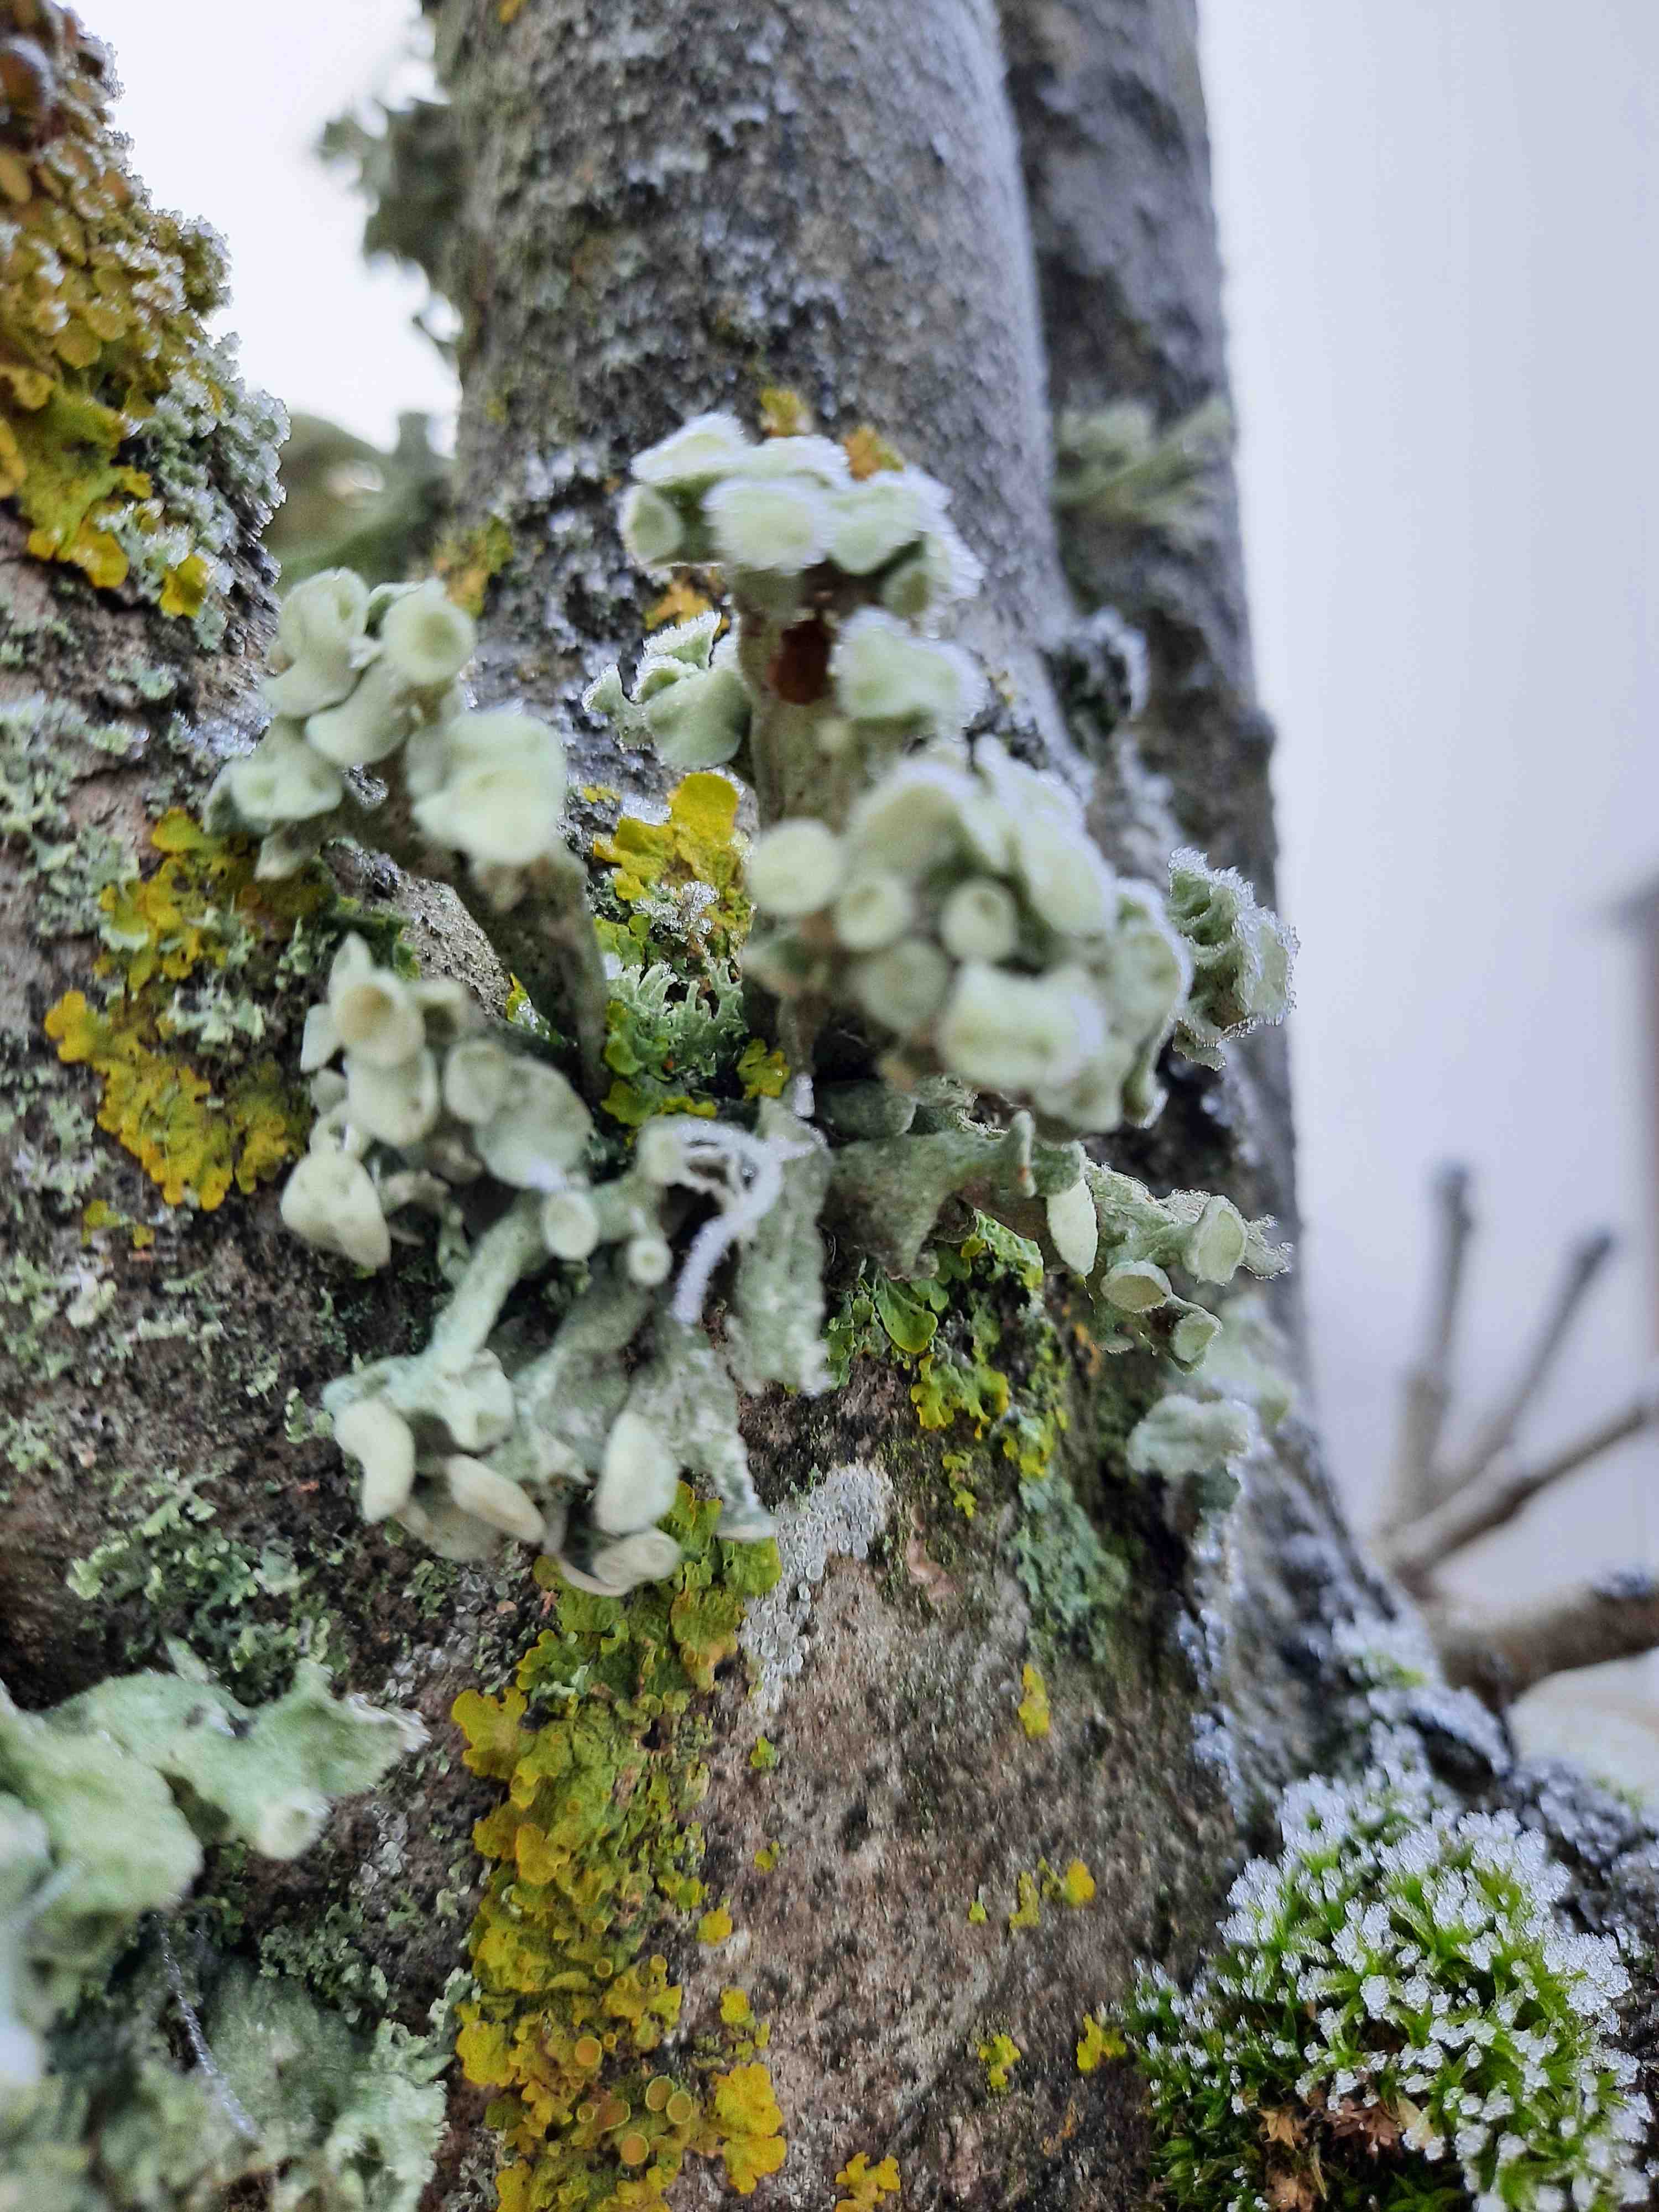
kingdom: Fungi
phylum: Ascomycota
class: Lecanoromycetes
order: Lecanorales
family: Ramalinaceae
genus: Ramalina
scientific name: Ramalina fastigiata
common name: tue-grenlav
